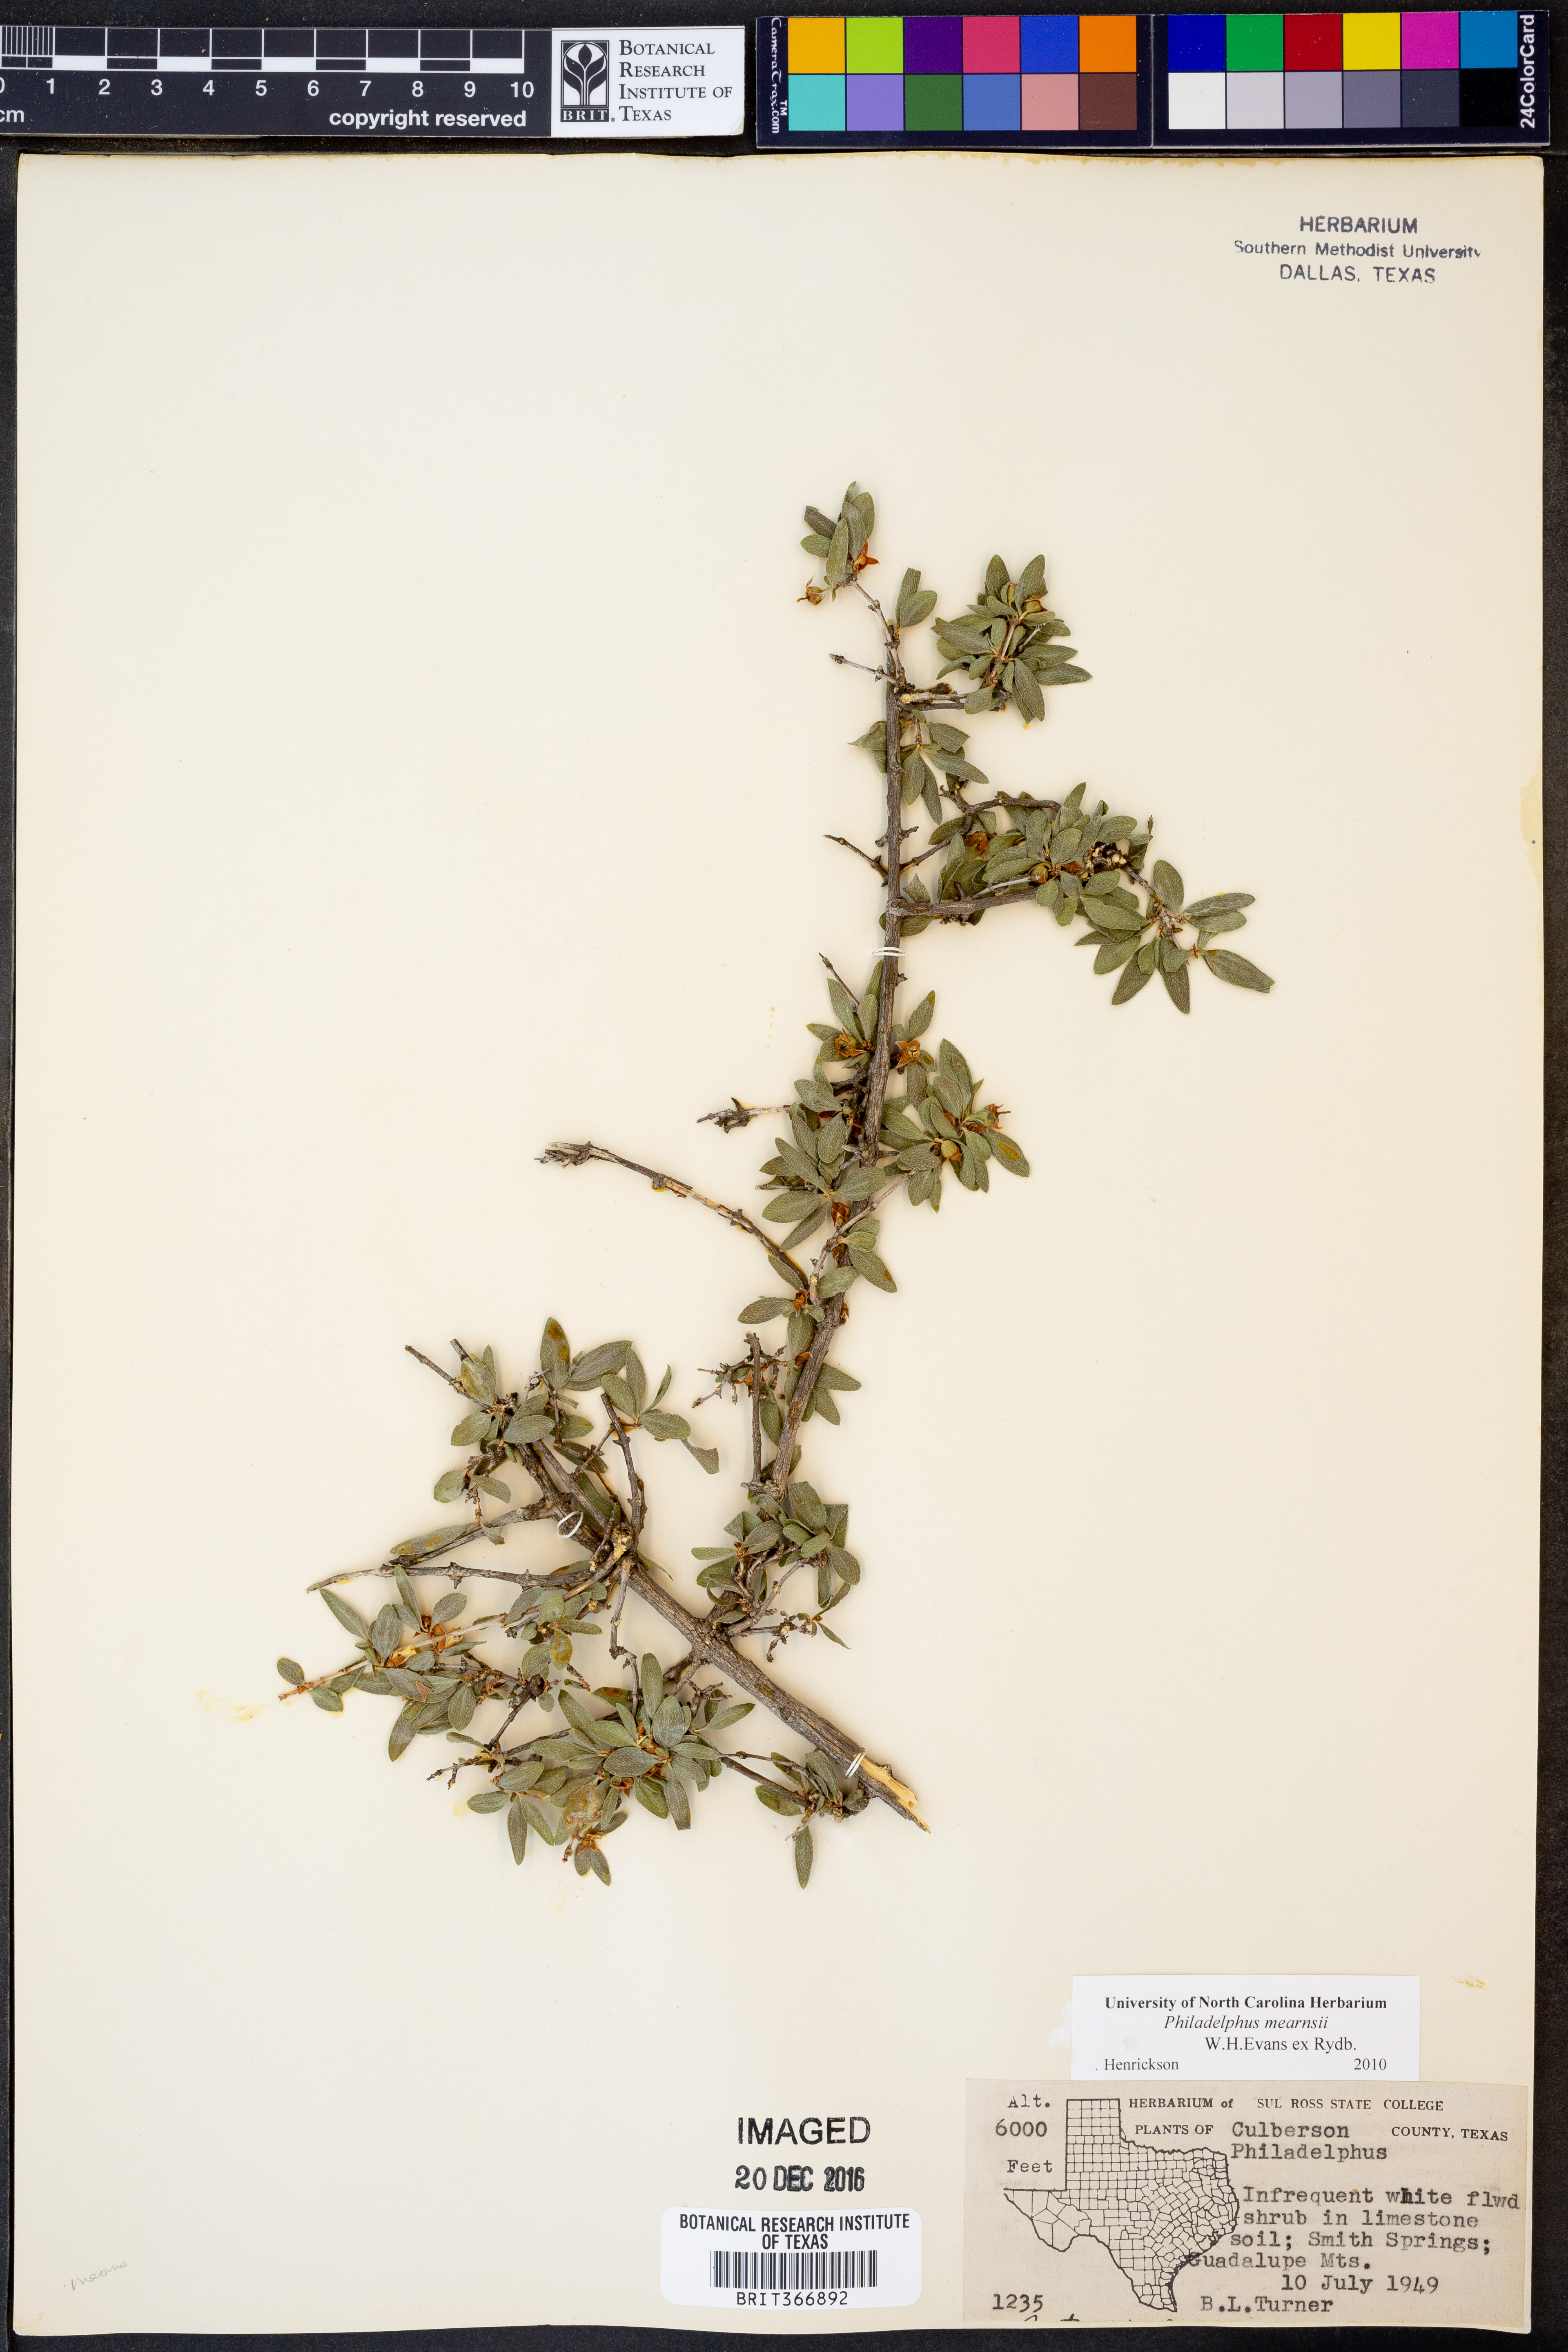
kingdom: Plantae
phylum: Tracheophyta
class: Magnoliopsida
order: Cornales
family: Hydrangeaceae
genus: Philadelphus
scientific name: Philadelphus mearnsii
